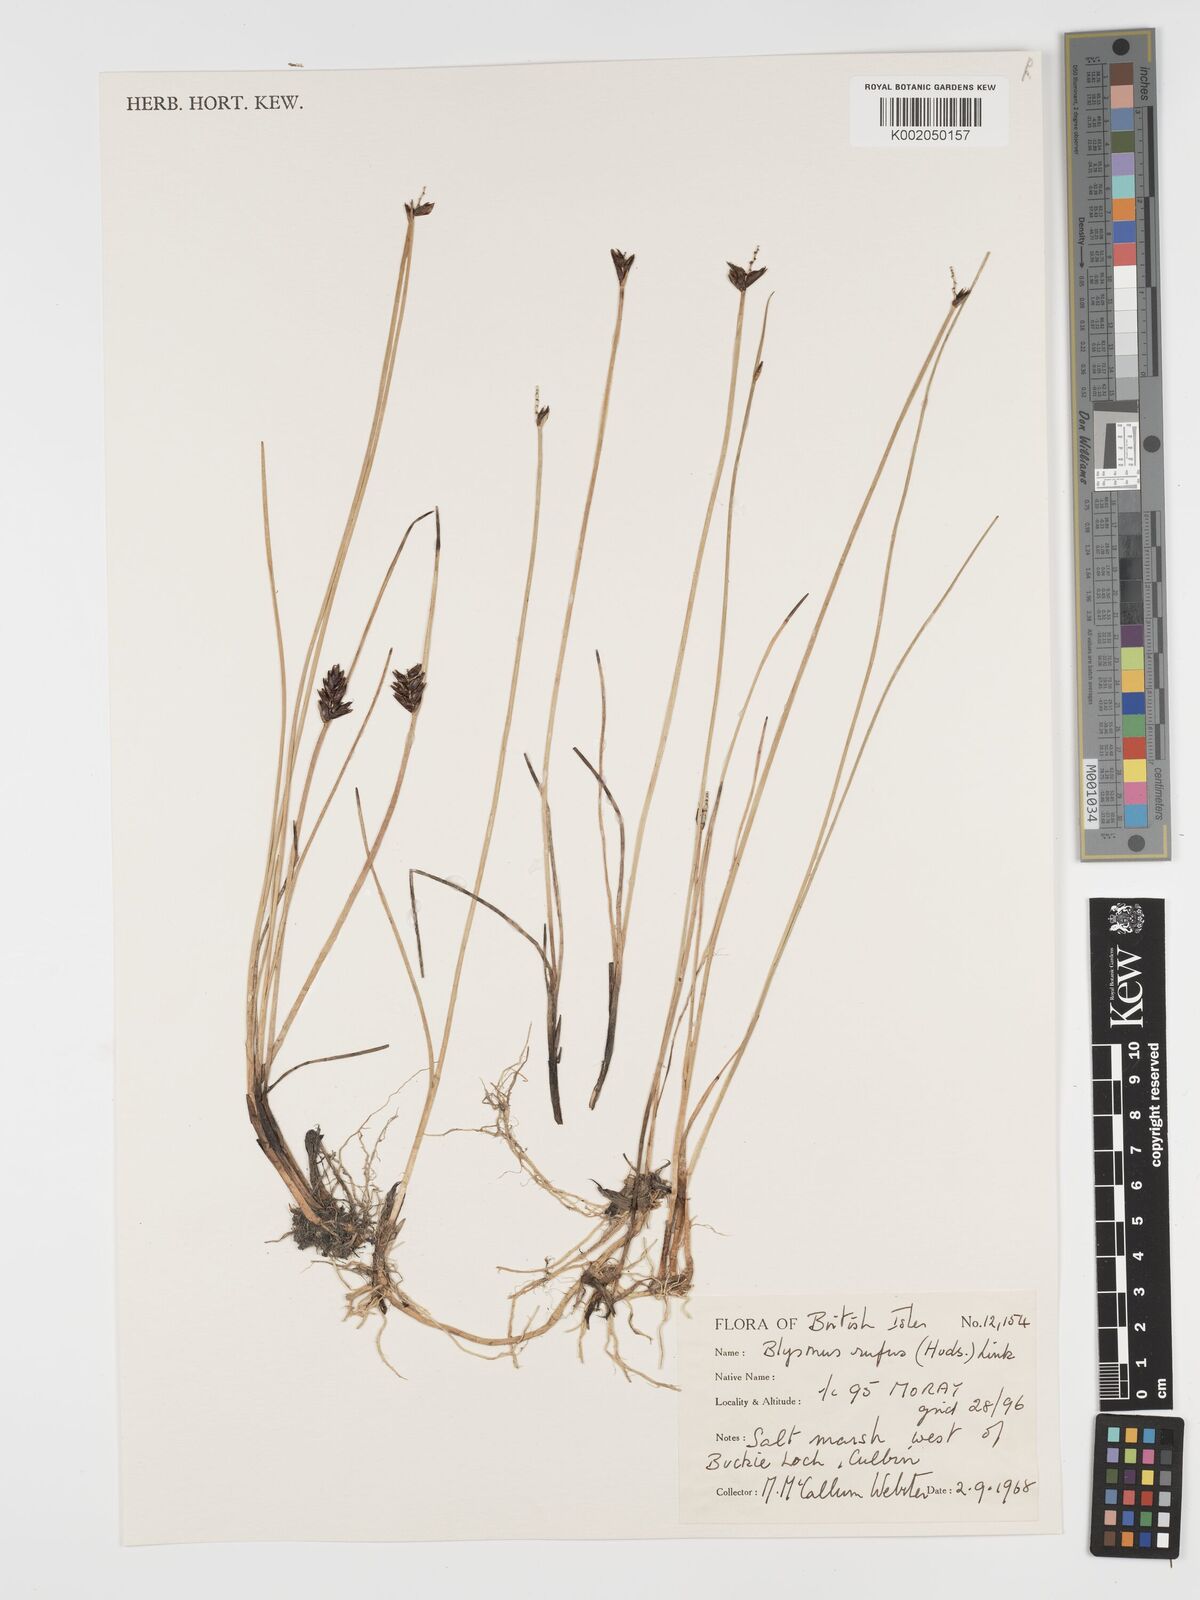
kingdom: Plantae
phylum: Tracheophyta
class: Liliopsida
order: Poales
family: Cyperaceae
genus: Blysmus
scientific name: Blysmus rufus
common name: Saltmarsh flat-sedge
